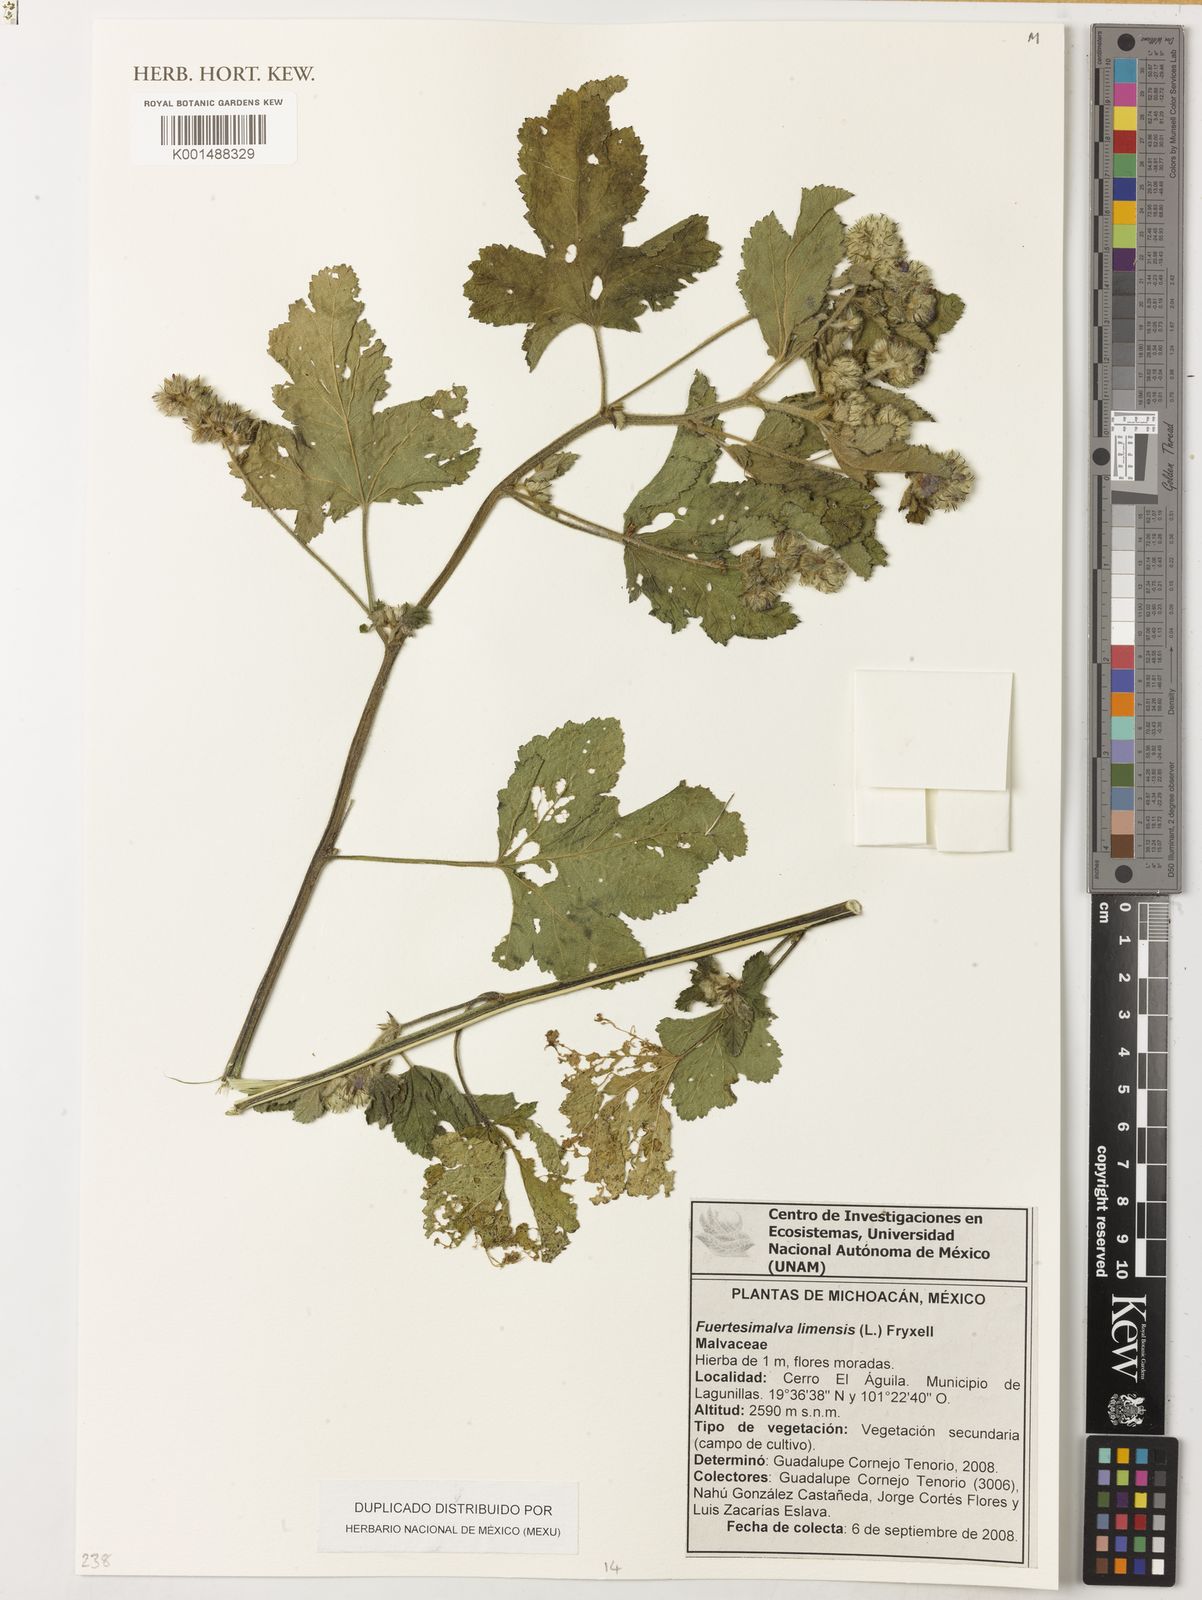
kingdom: Plantae
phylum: Tracheophyta
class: Magnoliopsida
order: Malvales
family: Malvaceae
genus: Fuertesimalva
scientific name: Fuertesimalva limensis
